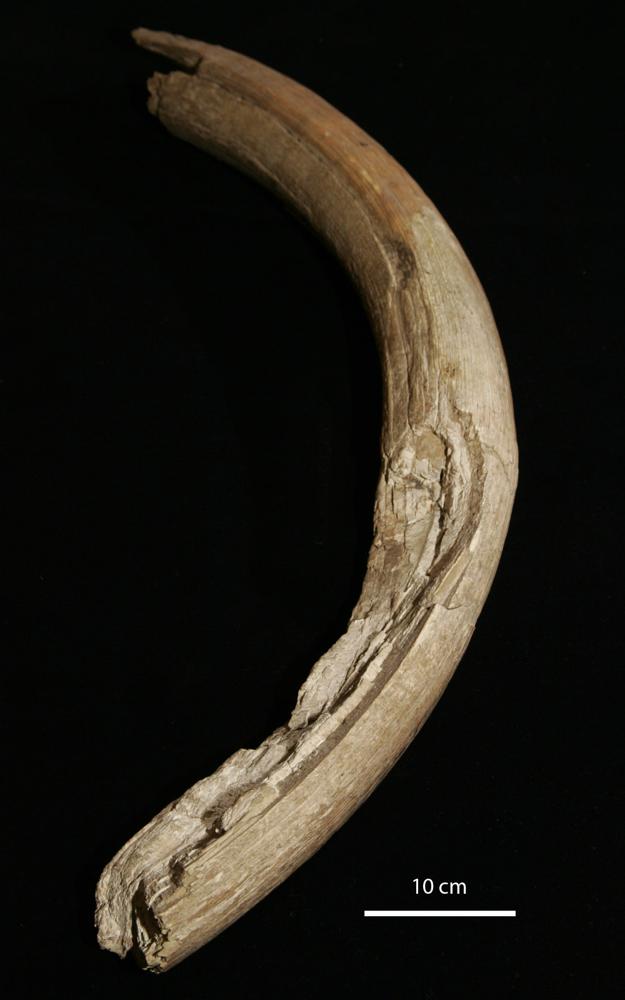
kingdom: Animalia
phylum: Chordata
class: Mammalia
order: Proboscidea
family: Elephantidae
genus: Mammuthus
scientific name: Mammuthus primigenius
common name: Wooly mammoth
